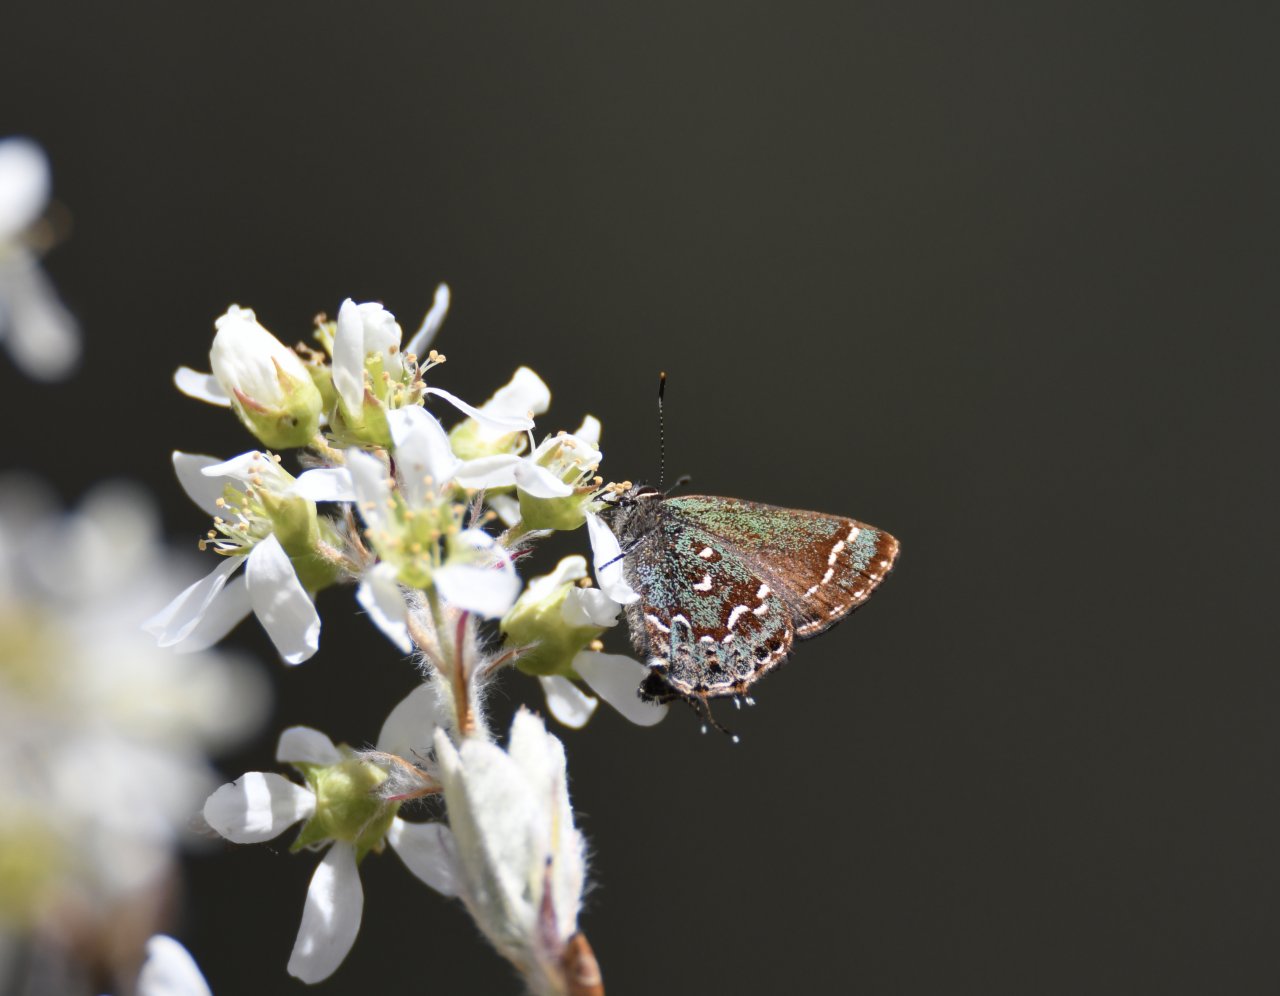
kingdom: Animalia
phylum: Arthropoda
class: Insecta
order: Lepidoptera
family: Lycaenidae
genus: Mitoura
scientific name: Mitoura hesseli
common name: Hessel's Hairstreak
